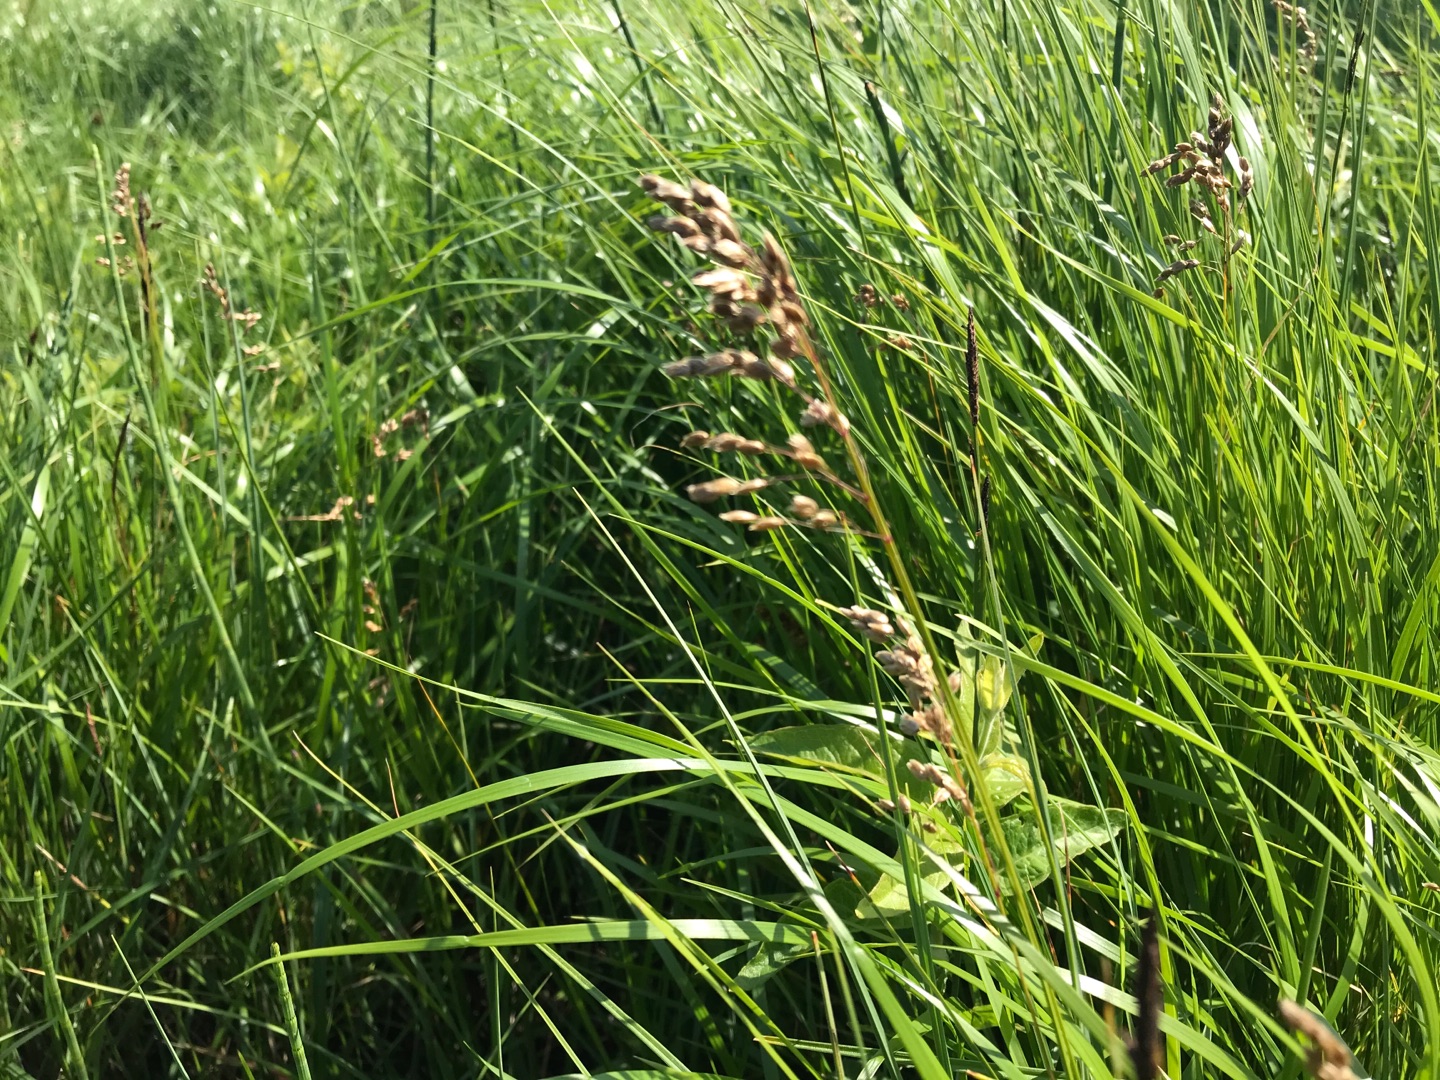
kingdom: Plantae
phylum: Tracheophyta
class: Liliopsida
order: Poales
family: Poaceae
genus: Anthoxanthum
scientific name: Anthoxanthum nitens
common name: Festgræs
